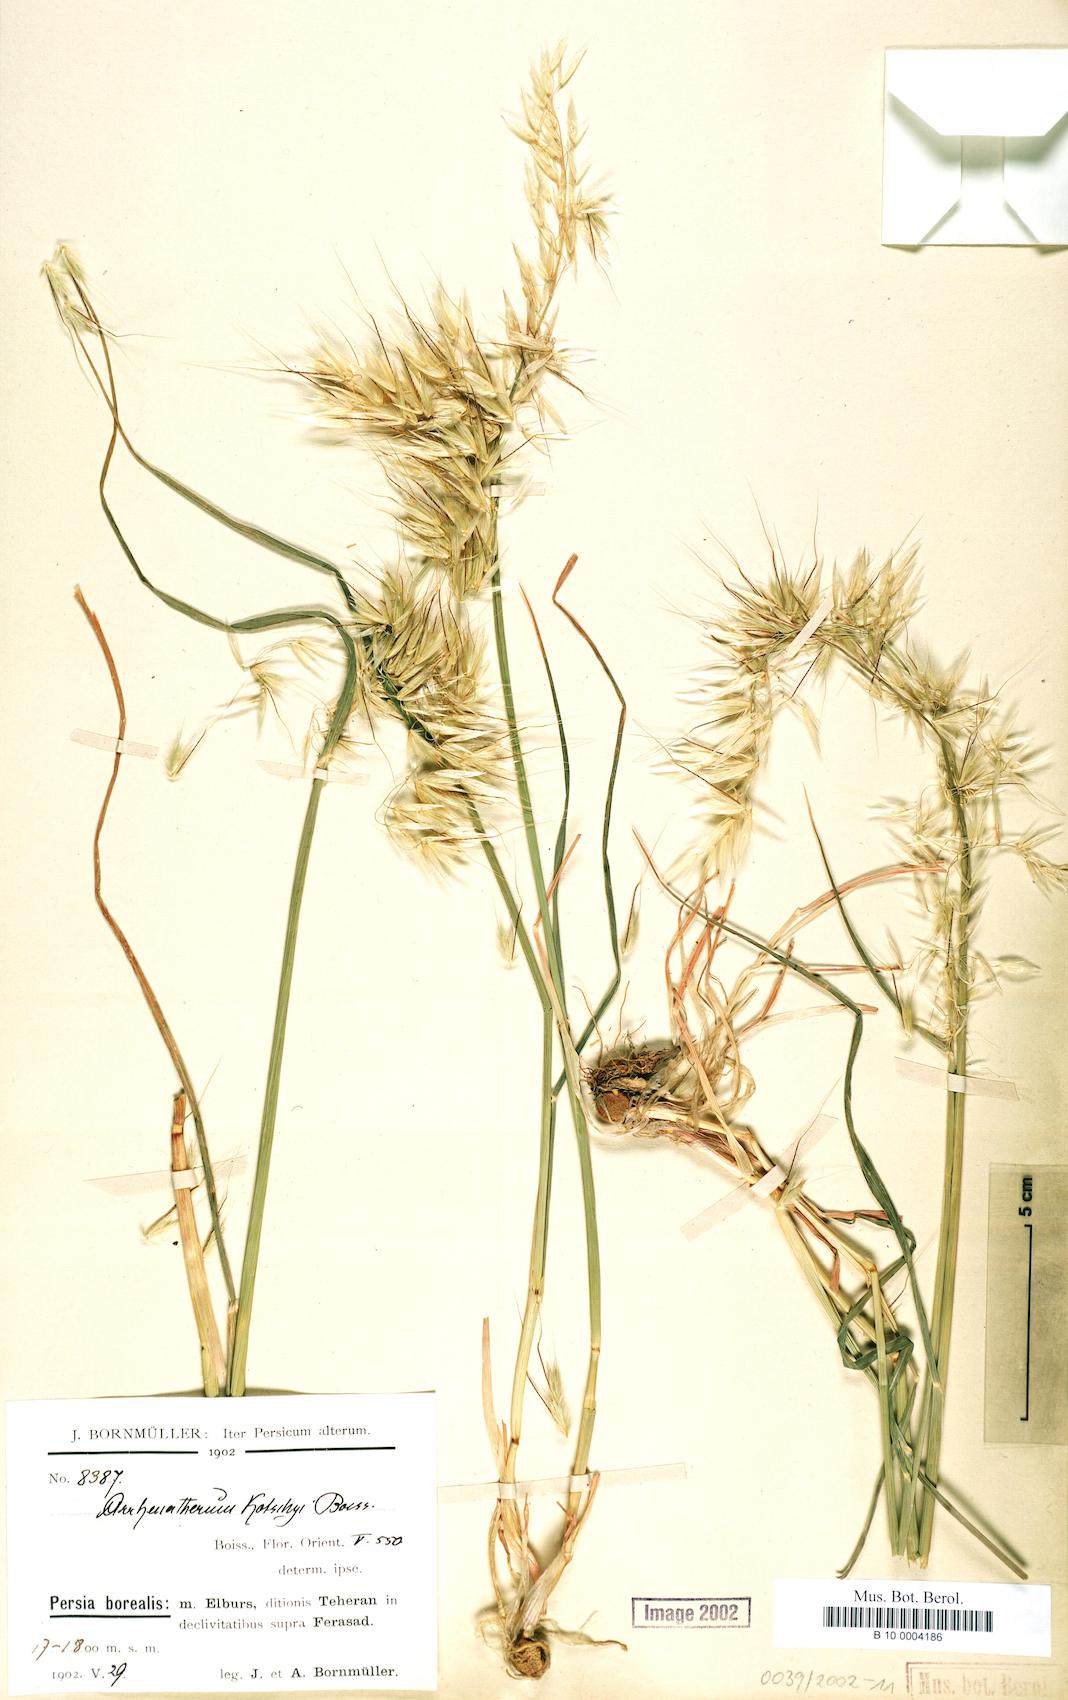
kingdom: Plantae
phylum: Tracheophyta
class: Liliopsida
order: Poales
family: Poaceae
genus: Arrhenatherum
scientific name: Arrhenatherum kotschyi
